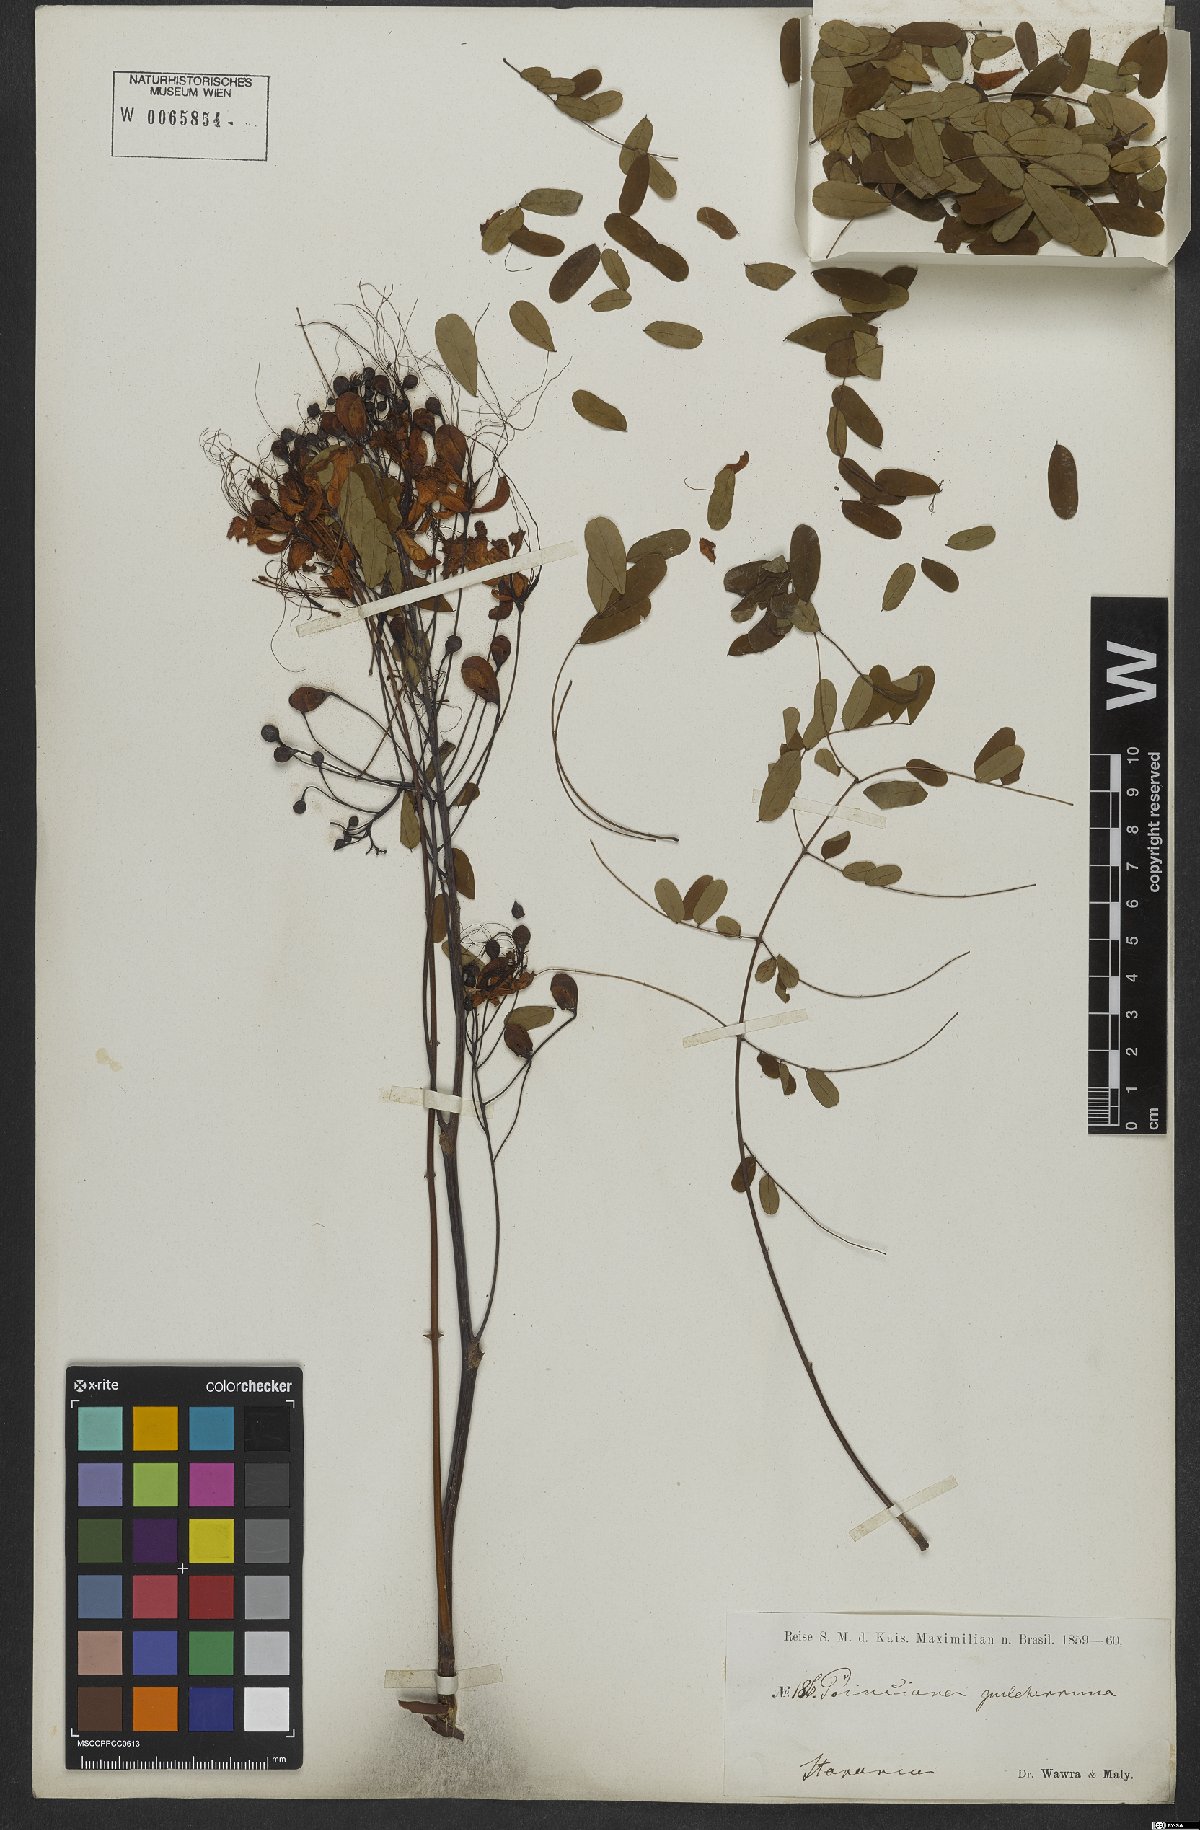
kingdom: Plantae
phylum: Tracheophyta
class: Magnoliopsida
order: Fabales
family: Fabaceae
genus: Caesalpinia
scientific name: Caesalpinia pulcherrima
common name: Pride-of-barbados
